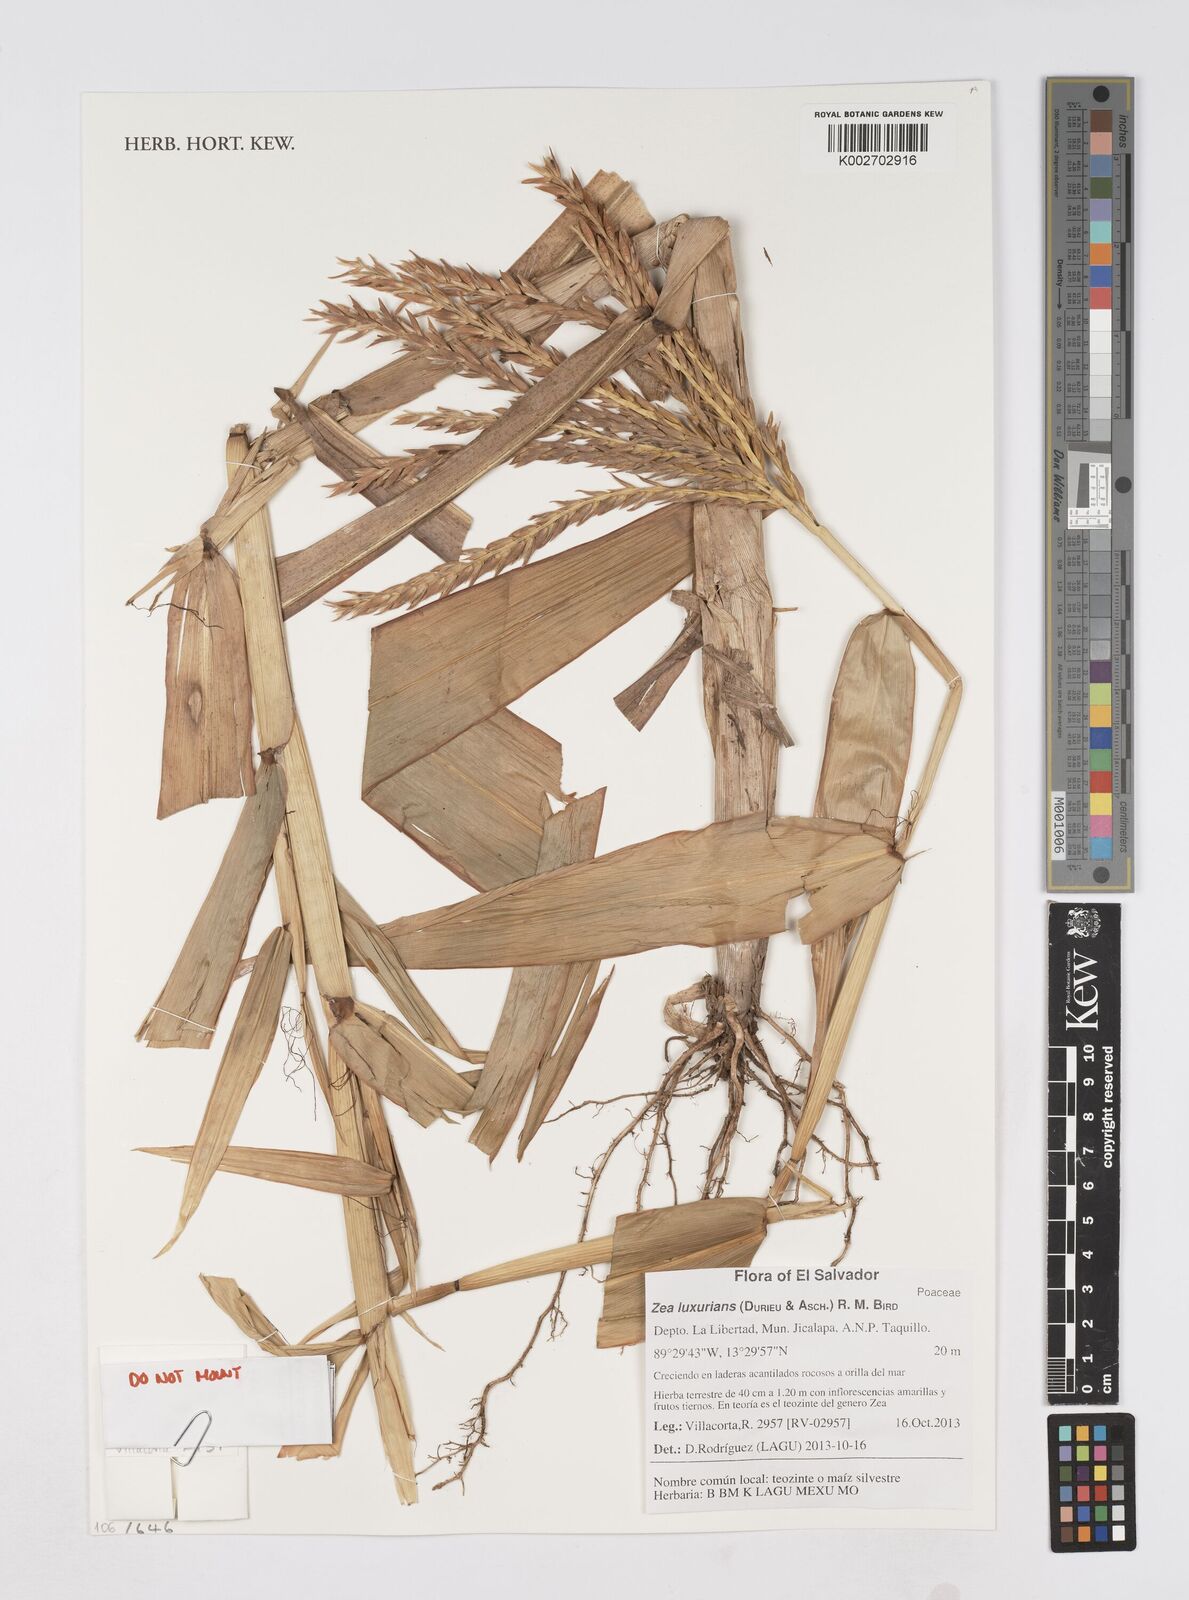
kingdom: Plantae
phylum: Tracheophyta
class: Liliopsida
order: Poales
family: Poaceae
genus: Zea
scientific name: Zea luxurians
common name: Teosinte
